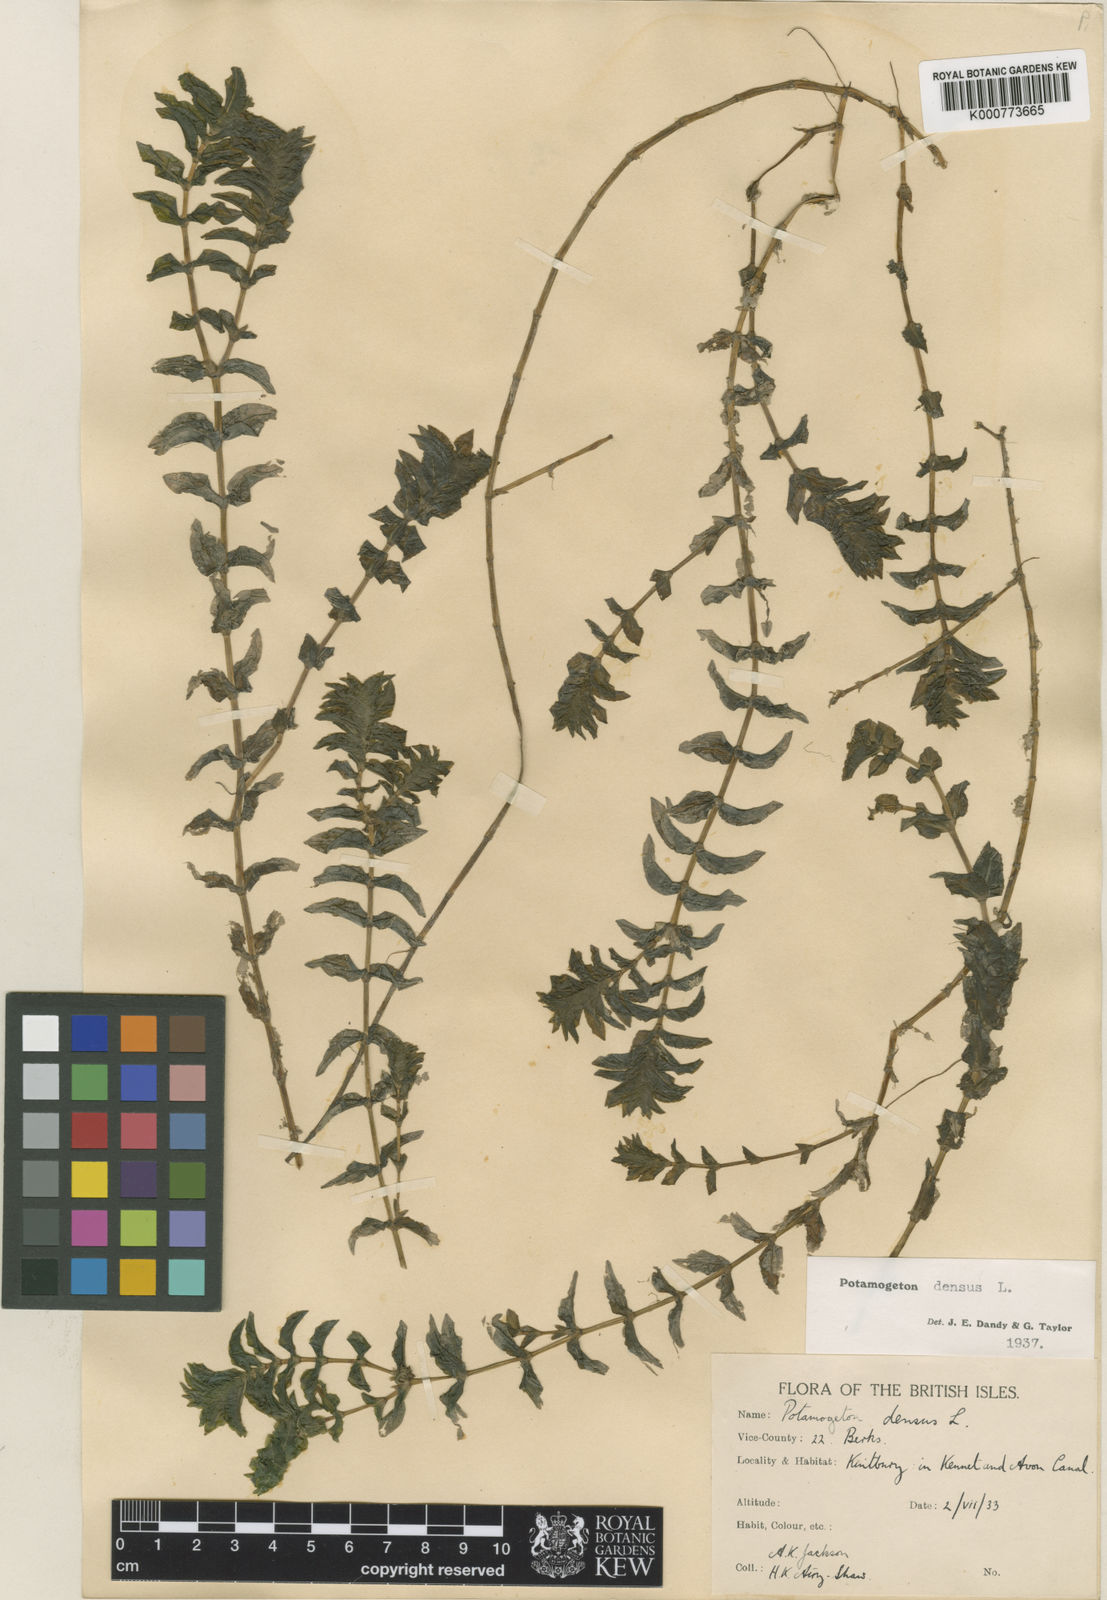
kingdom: Plantae
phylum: Tracheophyta
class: Liliopsida
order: Alismatales
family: Potamogetonaceae
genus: Groenlandia
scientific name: Groenlandia densa
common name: Opposite-leaved pondweed
